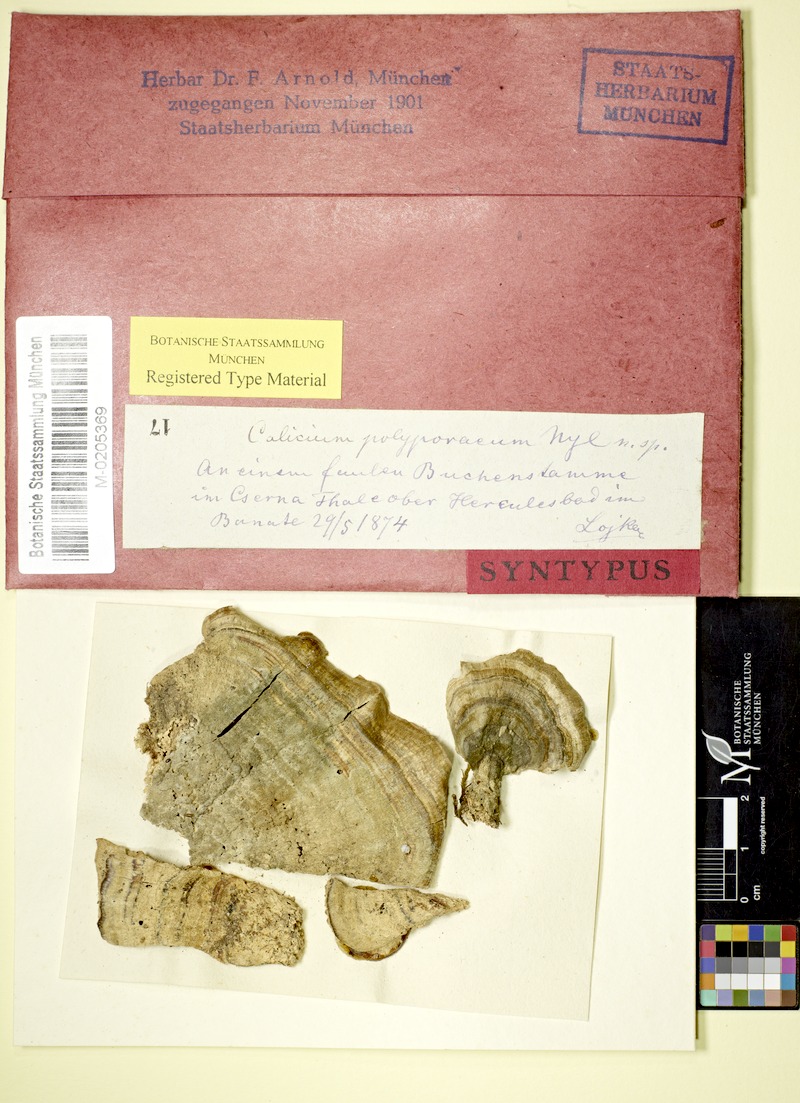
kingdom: Fungi
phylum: Ascomycota
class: Eurotiomycetes
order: Mycocaliciales
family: Mycocaliciaceae
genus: Phaeocalicium
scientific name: Phaeocalicium polyporaeum
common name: Fairy pins
